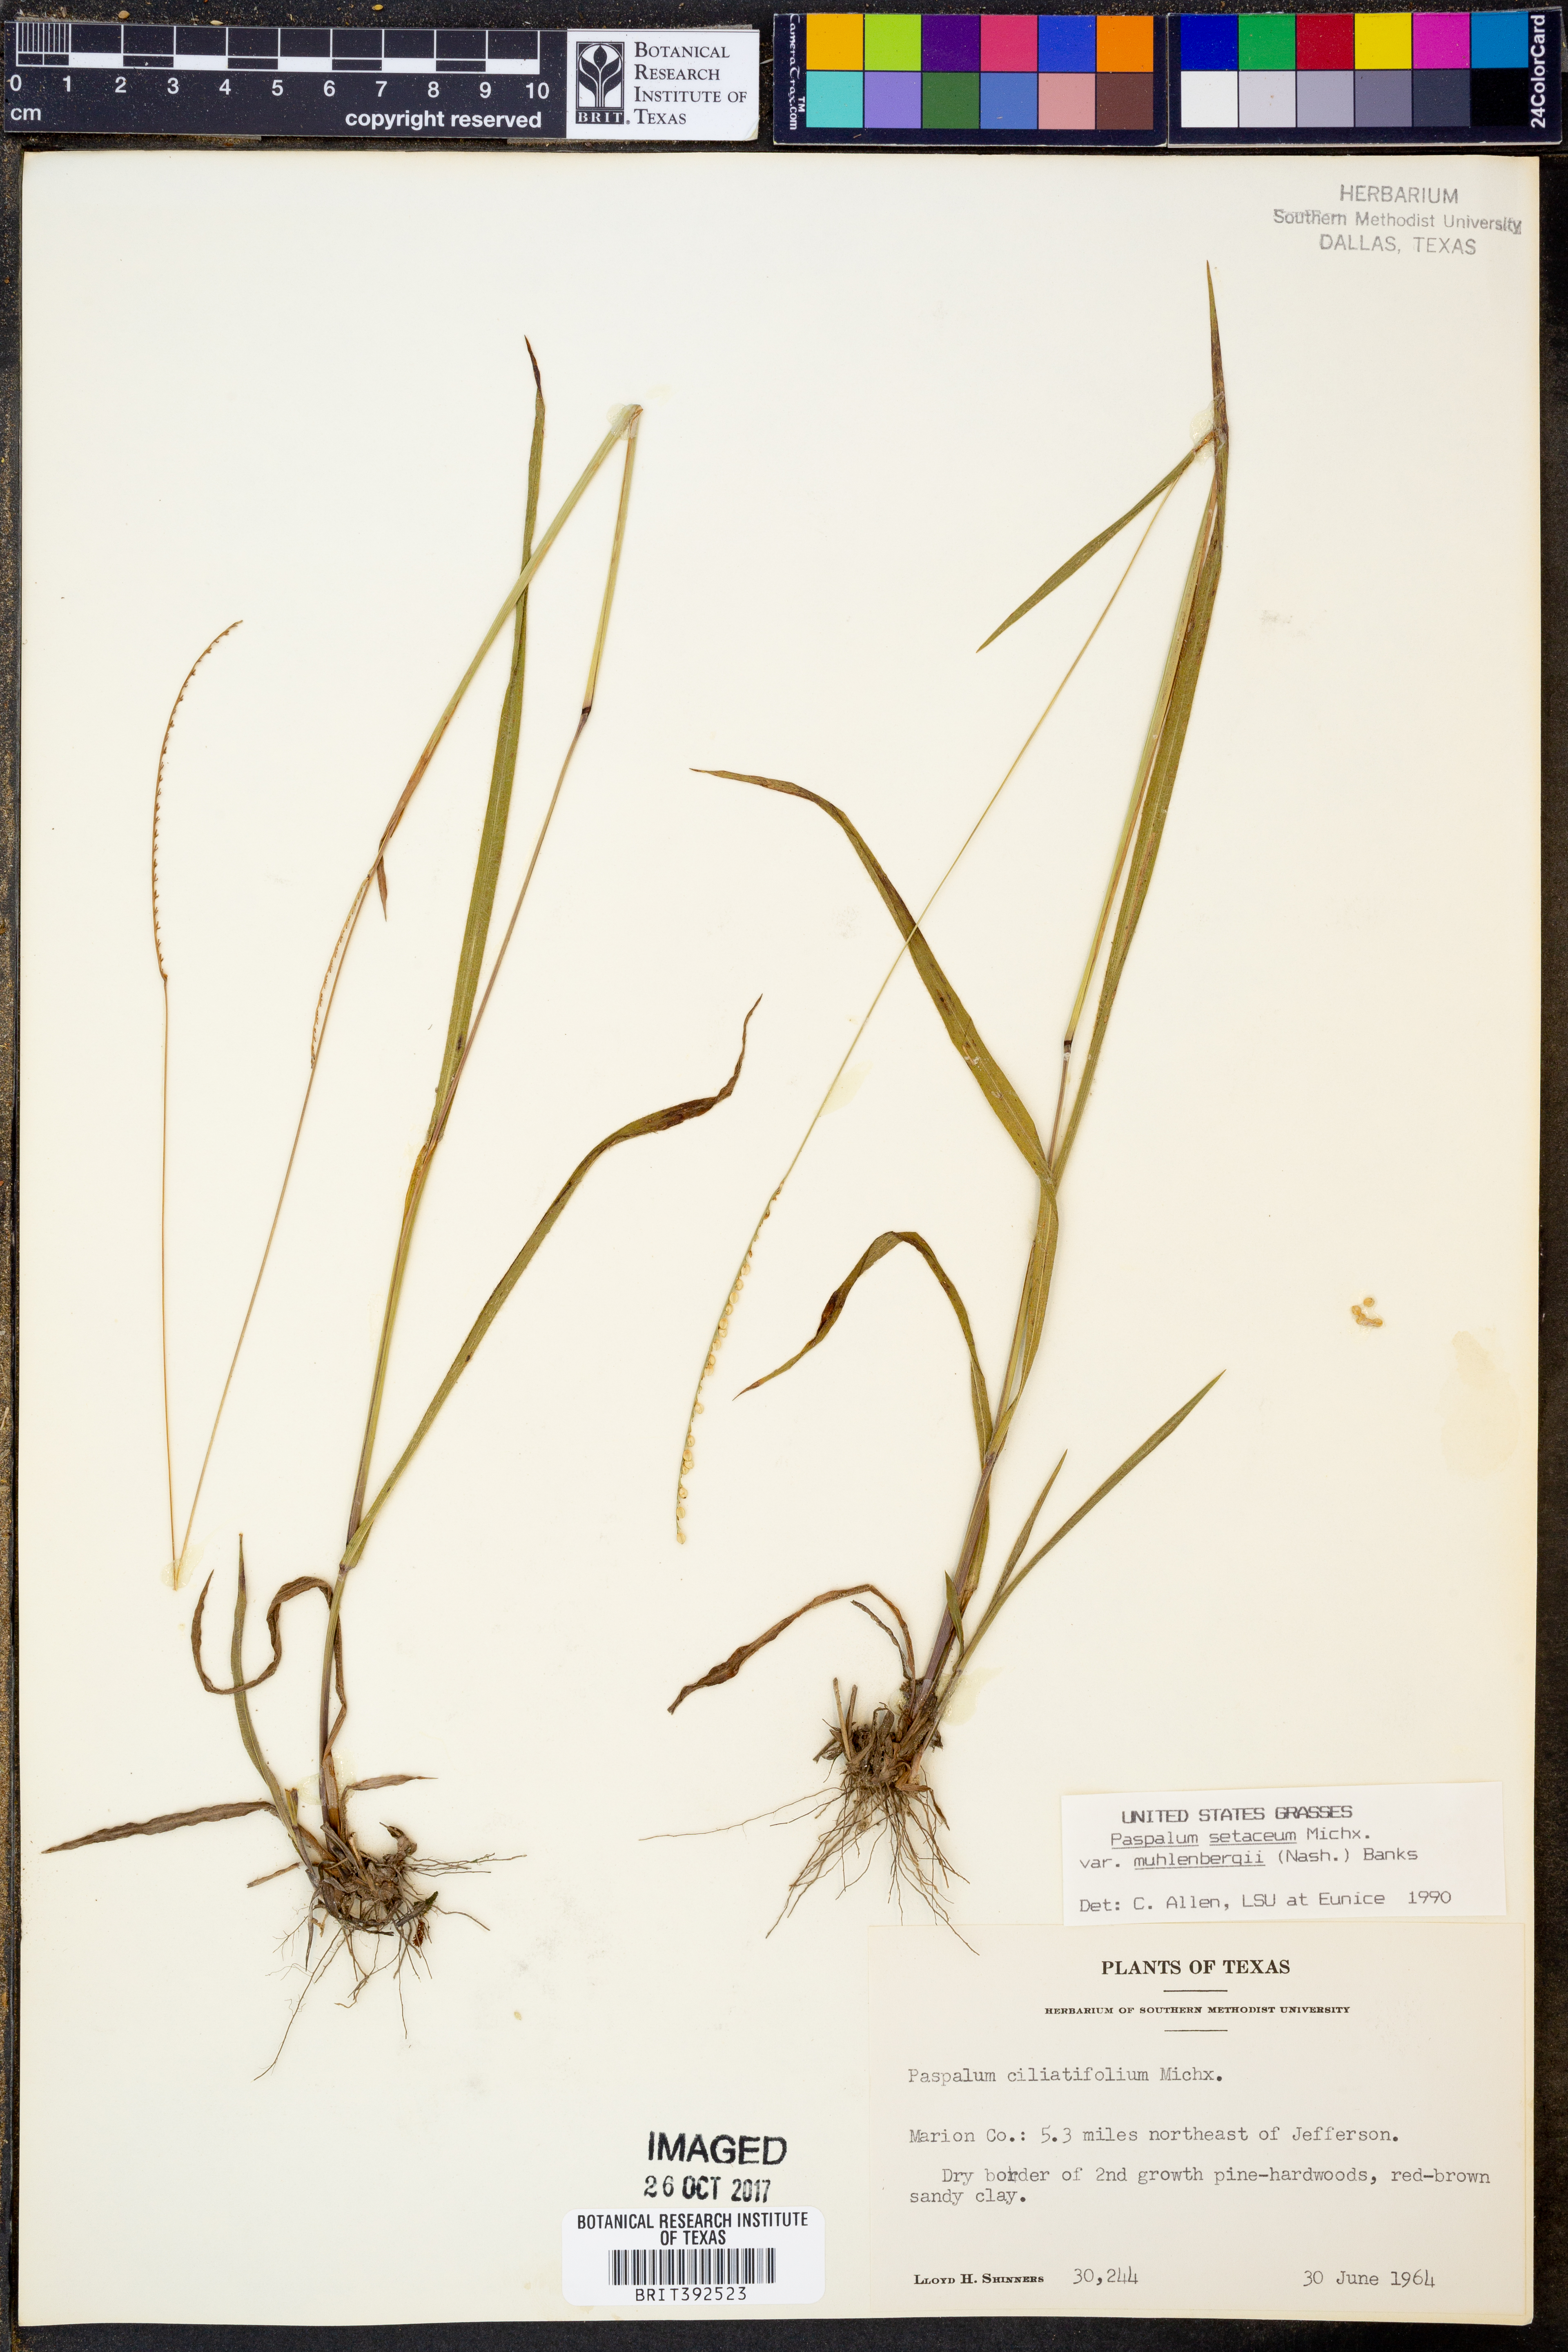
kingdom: Plantae
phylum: Tracheophyta
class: Liliopsida
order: Poales
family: Poaceae
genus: Paspalum
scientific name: Paspalum setaceum
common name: Slender paspalum
